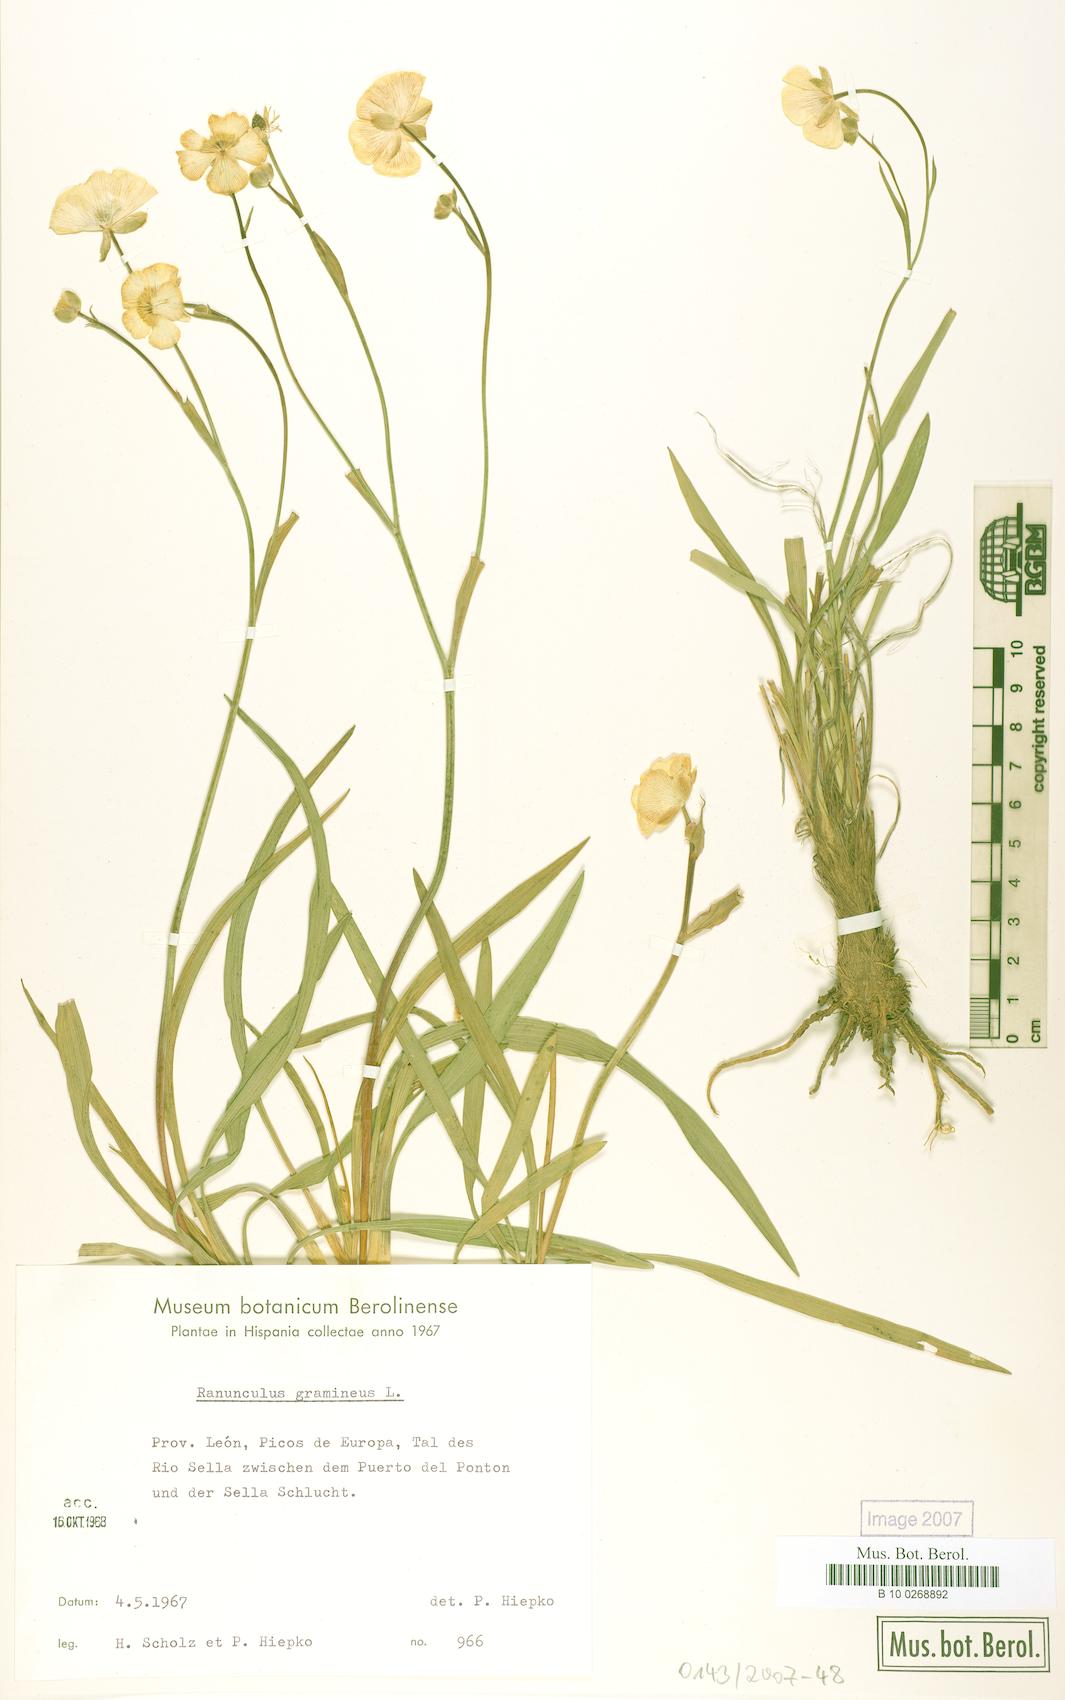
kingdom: Plantae
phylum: Tracheophyta
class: Magnoliopsida
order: Ranunculales
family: Ranunculaceae
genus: Ranunculus
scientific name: Ranunculus gramineus
